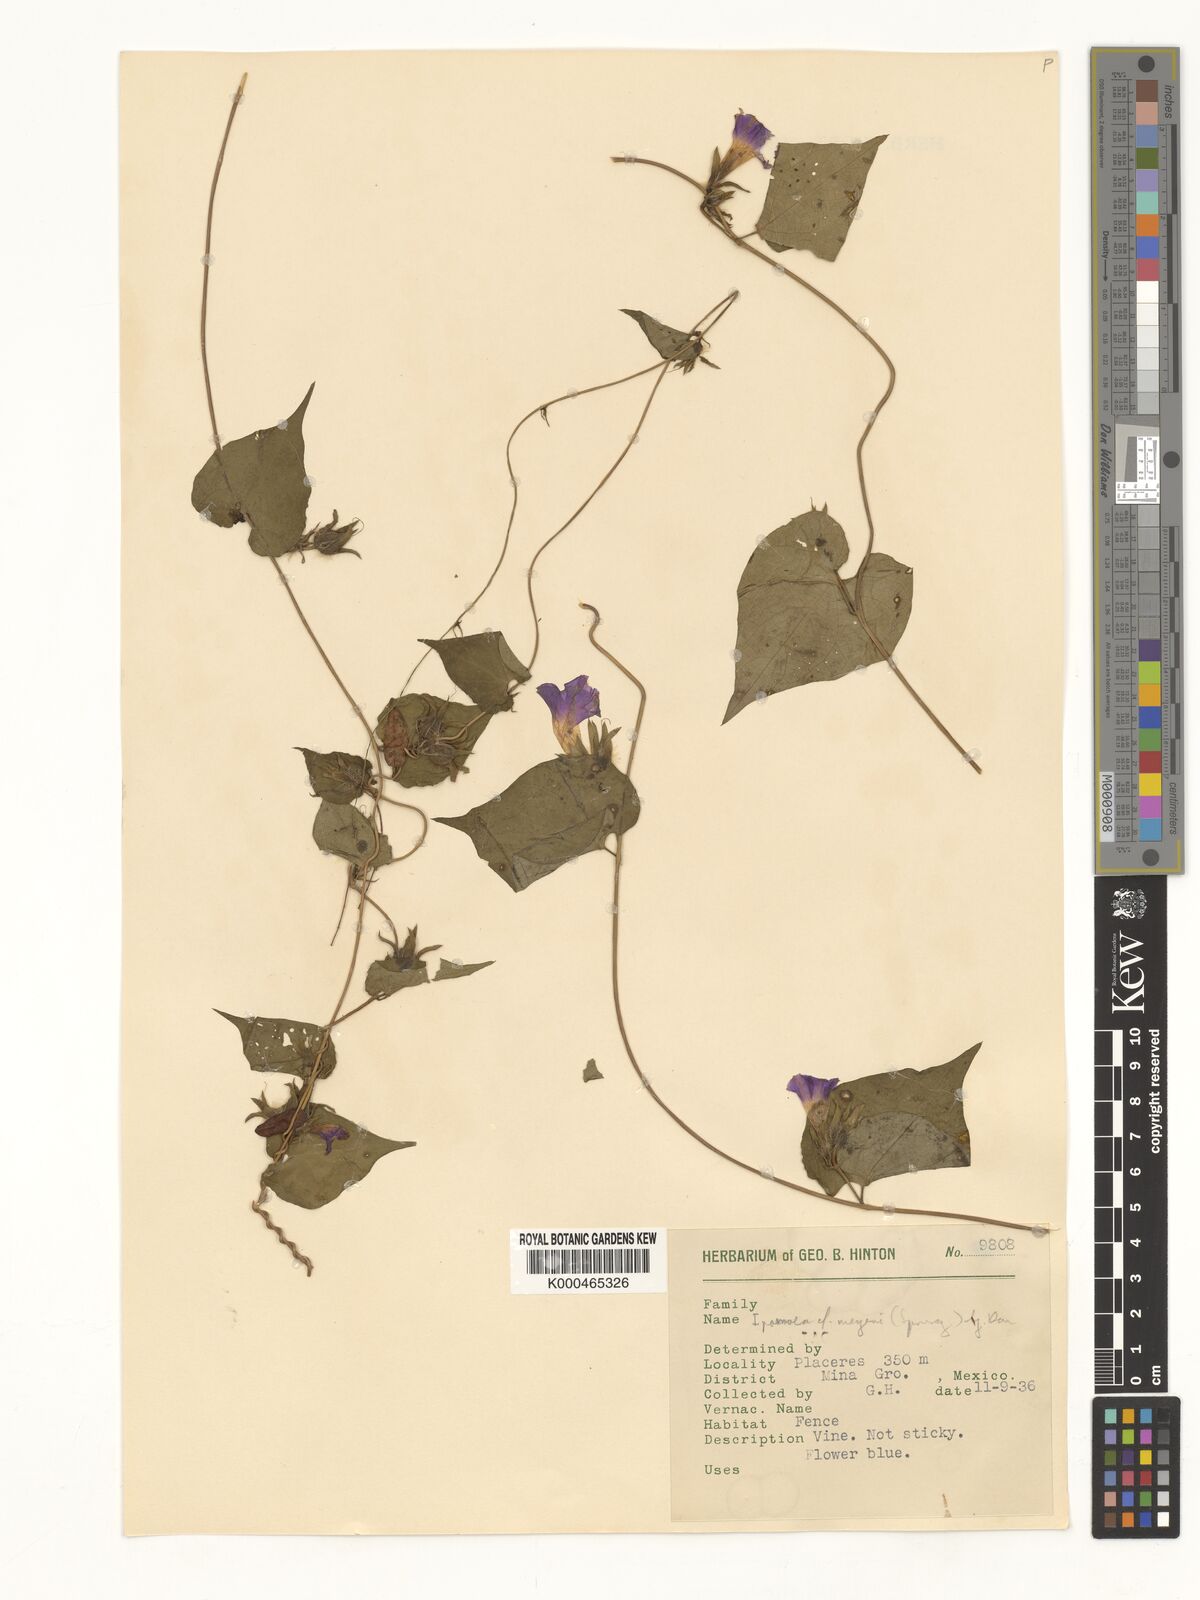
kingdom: Plantae
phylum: Tracheophyta
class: Magnoliopsida
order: Solanales
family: Convolvulaceae
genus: Ipomoea
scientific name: Ipomoea meyeri
